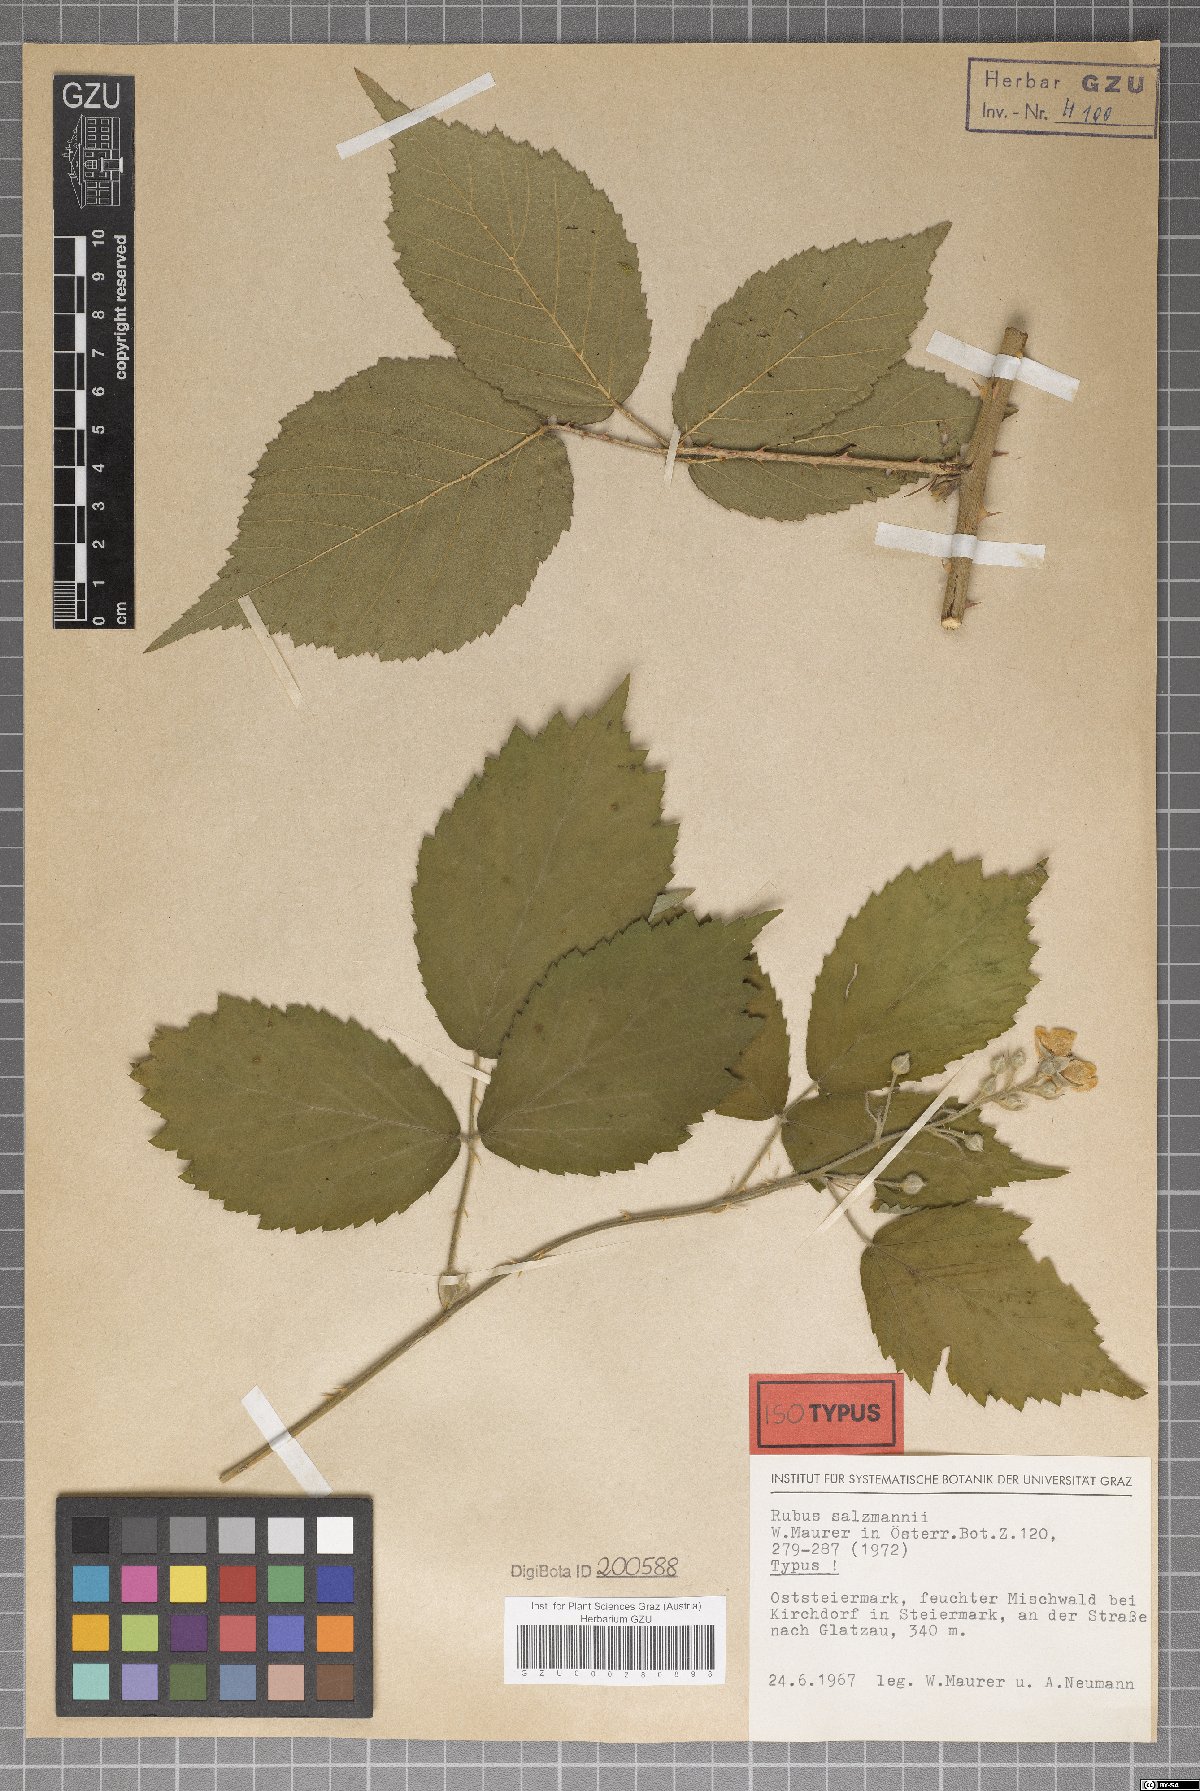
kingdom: Plantae
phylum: Tracheophyta
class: Magnoliopsida
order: Rosales
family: Rosaceae
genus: Rubus
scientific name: Rubus salzmannii
